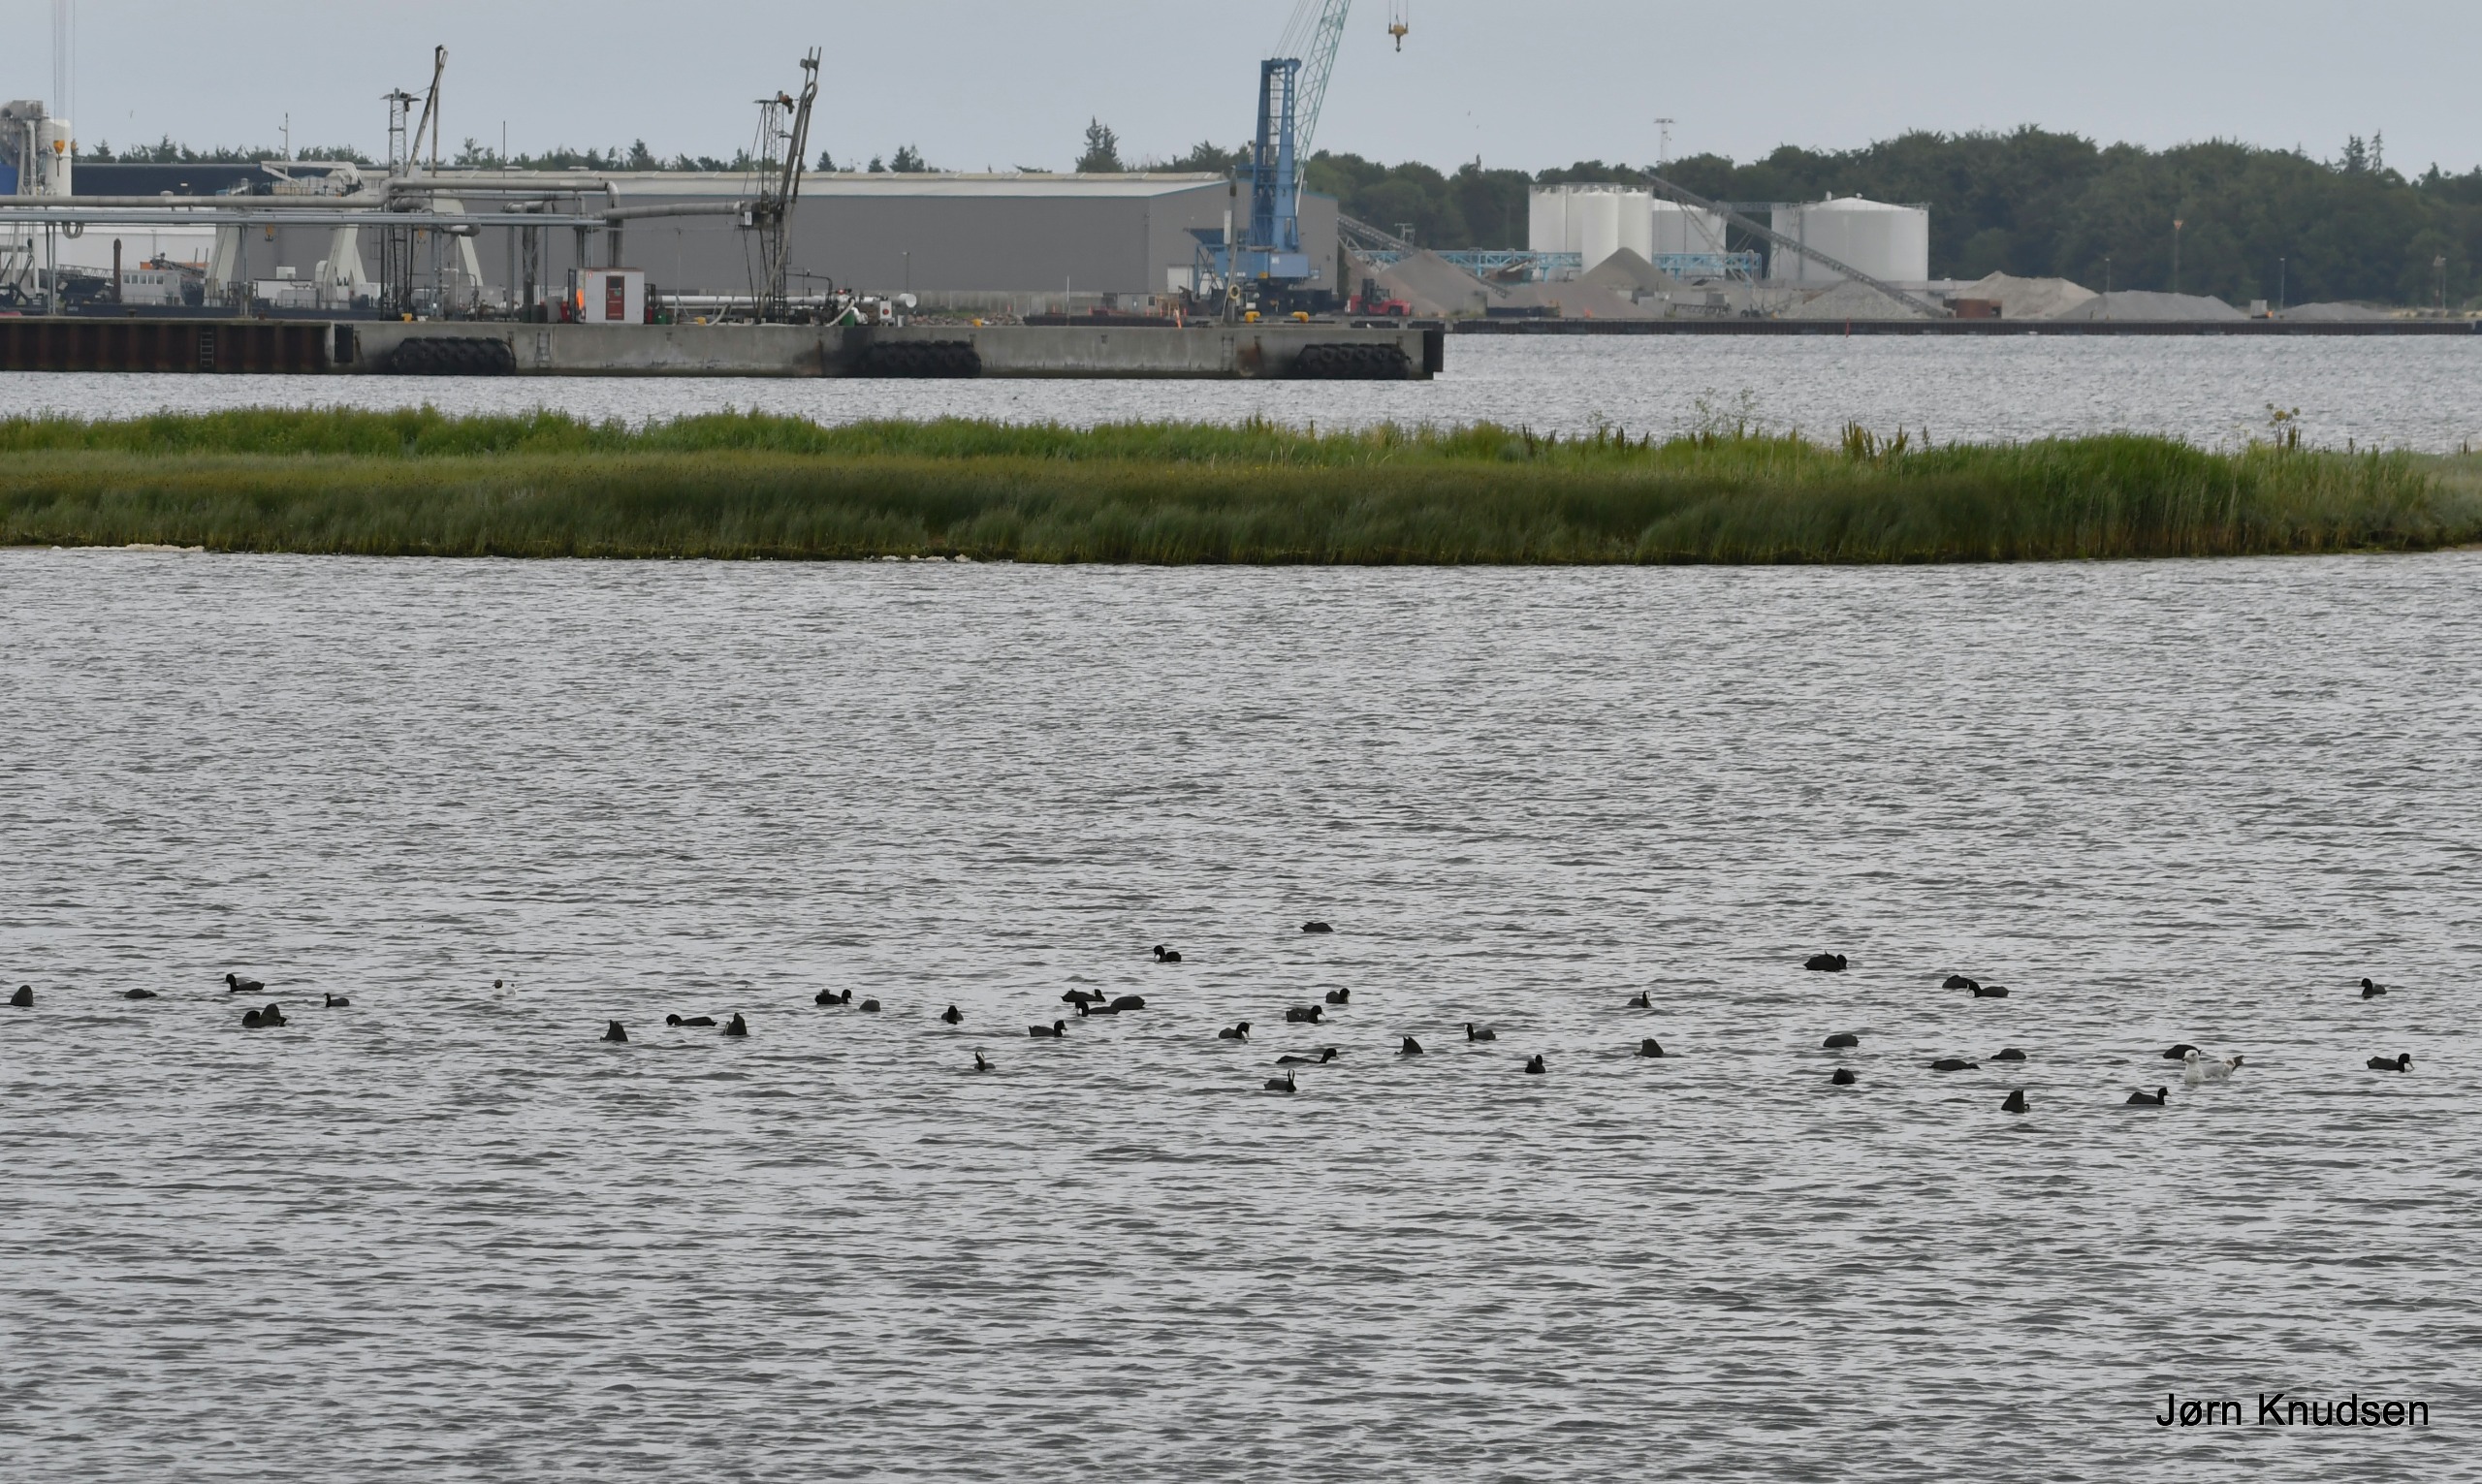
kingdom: Animalia
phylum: Chordata
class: Aves
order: Gruiformes
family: Rallidae
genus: Fulica
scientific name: Fulica atra
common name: Blishøne
